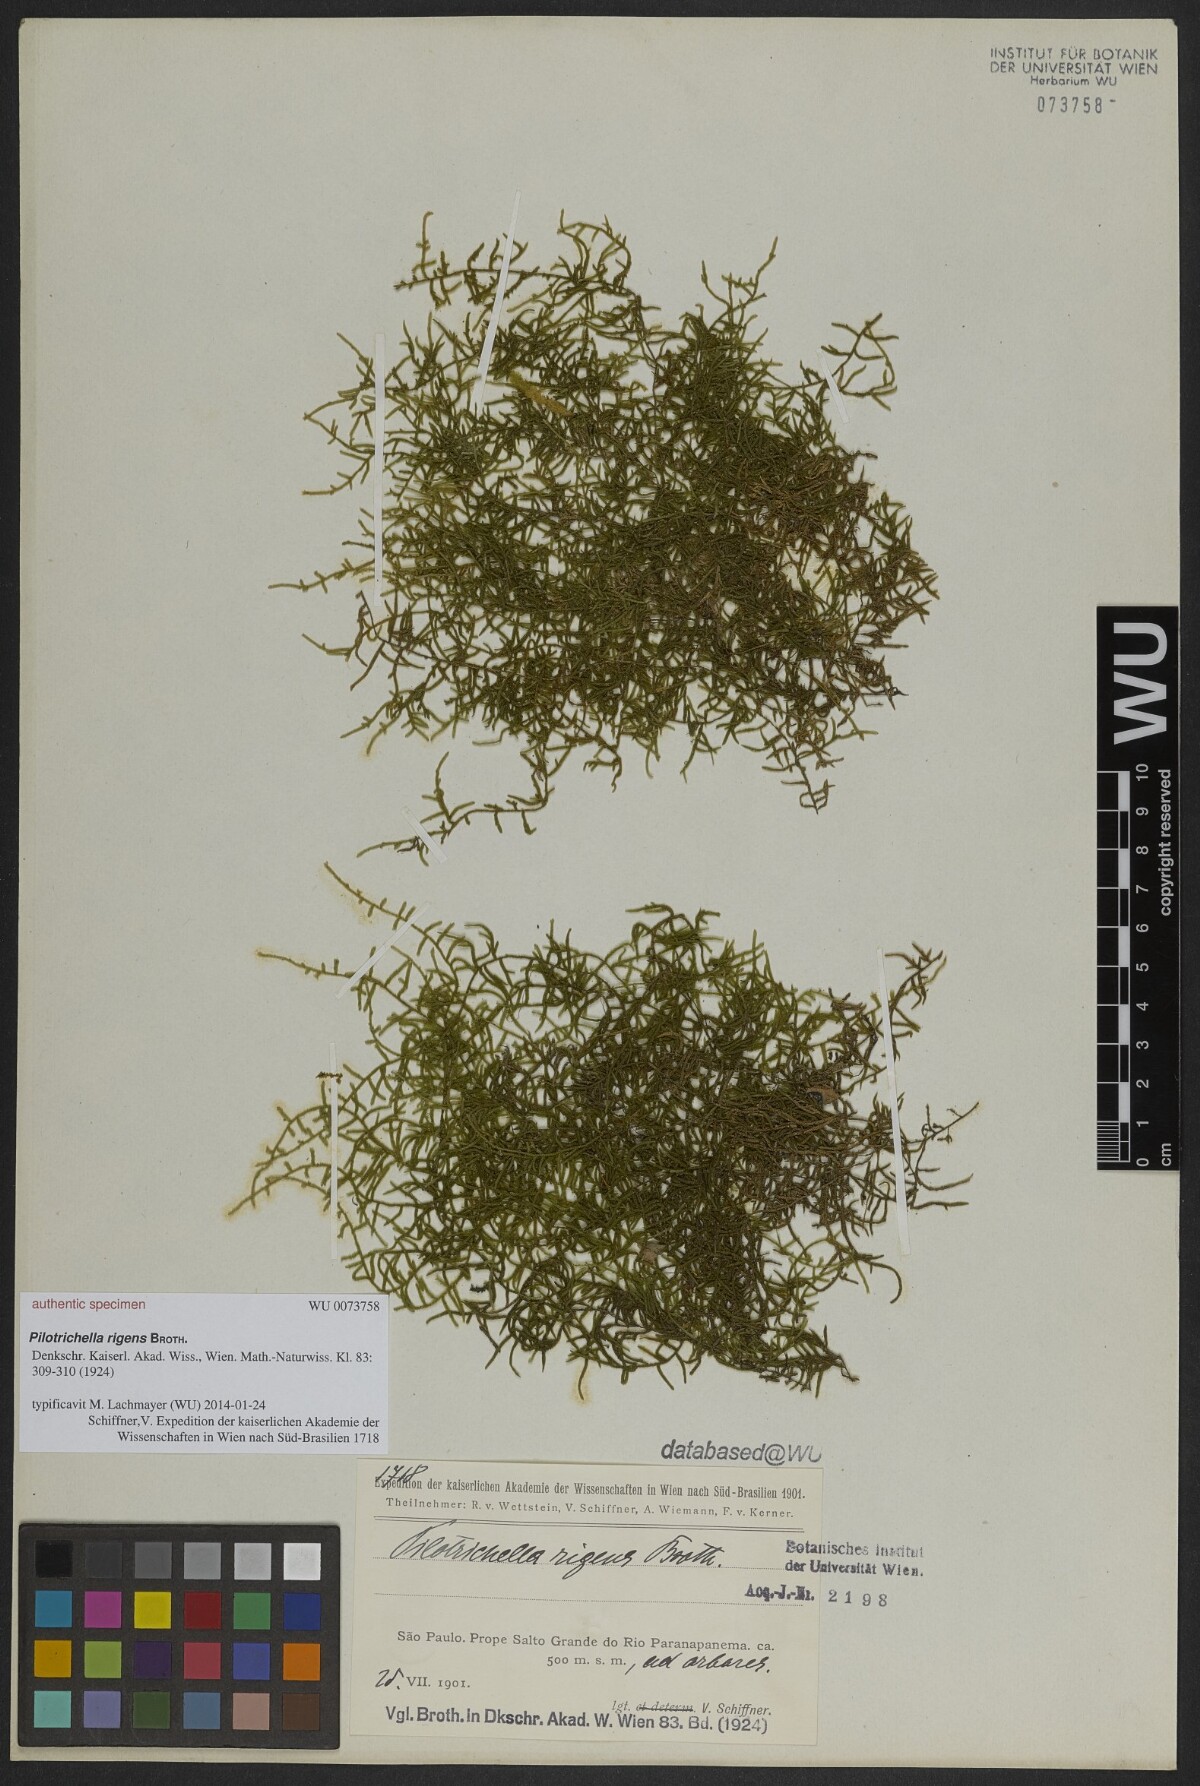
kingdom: Plantae
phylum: Bryophyta
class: Bryopsida
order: Hypnales
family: Orthostichellaceae
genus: Orthostichella
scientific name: Orthostichella pachygastrella
